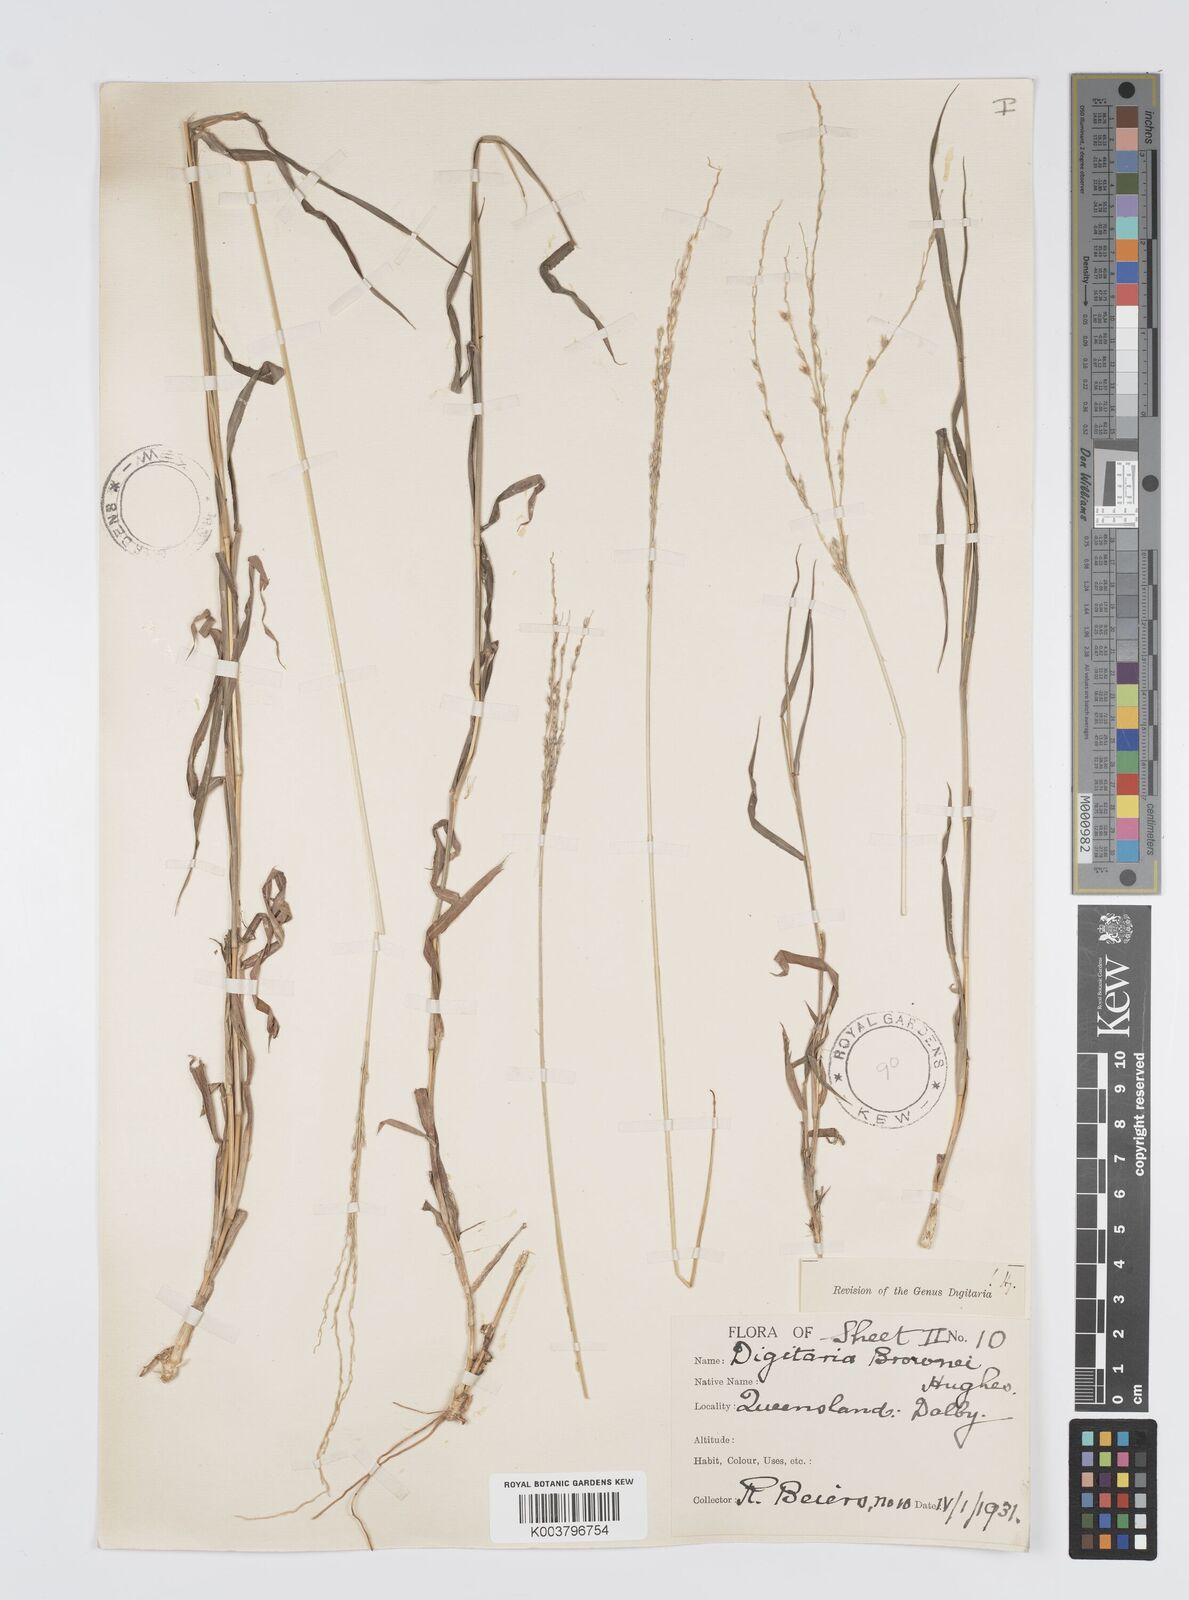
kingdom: Plantae
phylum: Tracheophyta
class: Liliopsida
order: Poales
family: Poaceae
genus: Digitaria
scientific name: Digitaria brownii
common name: Cotton grass
